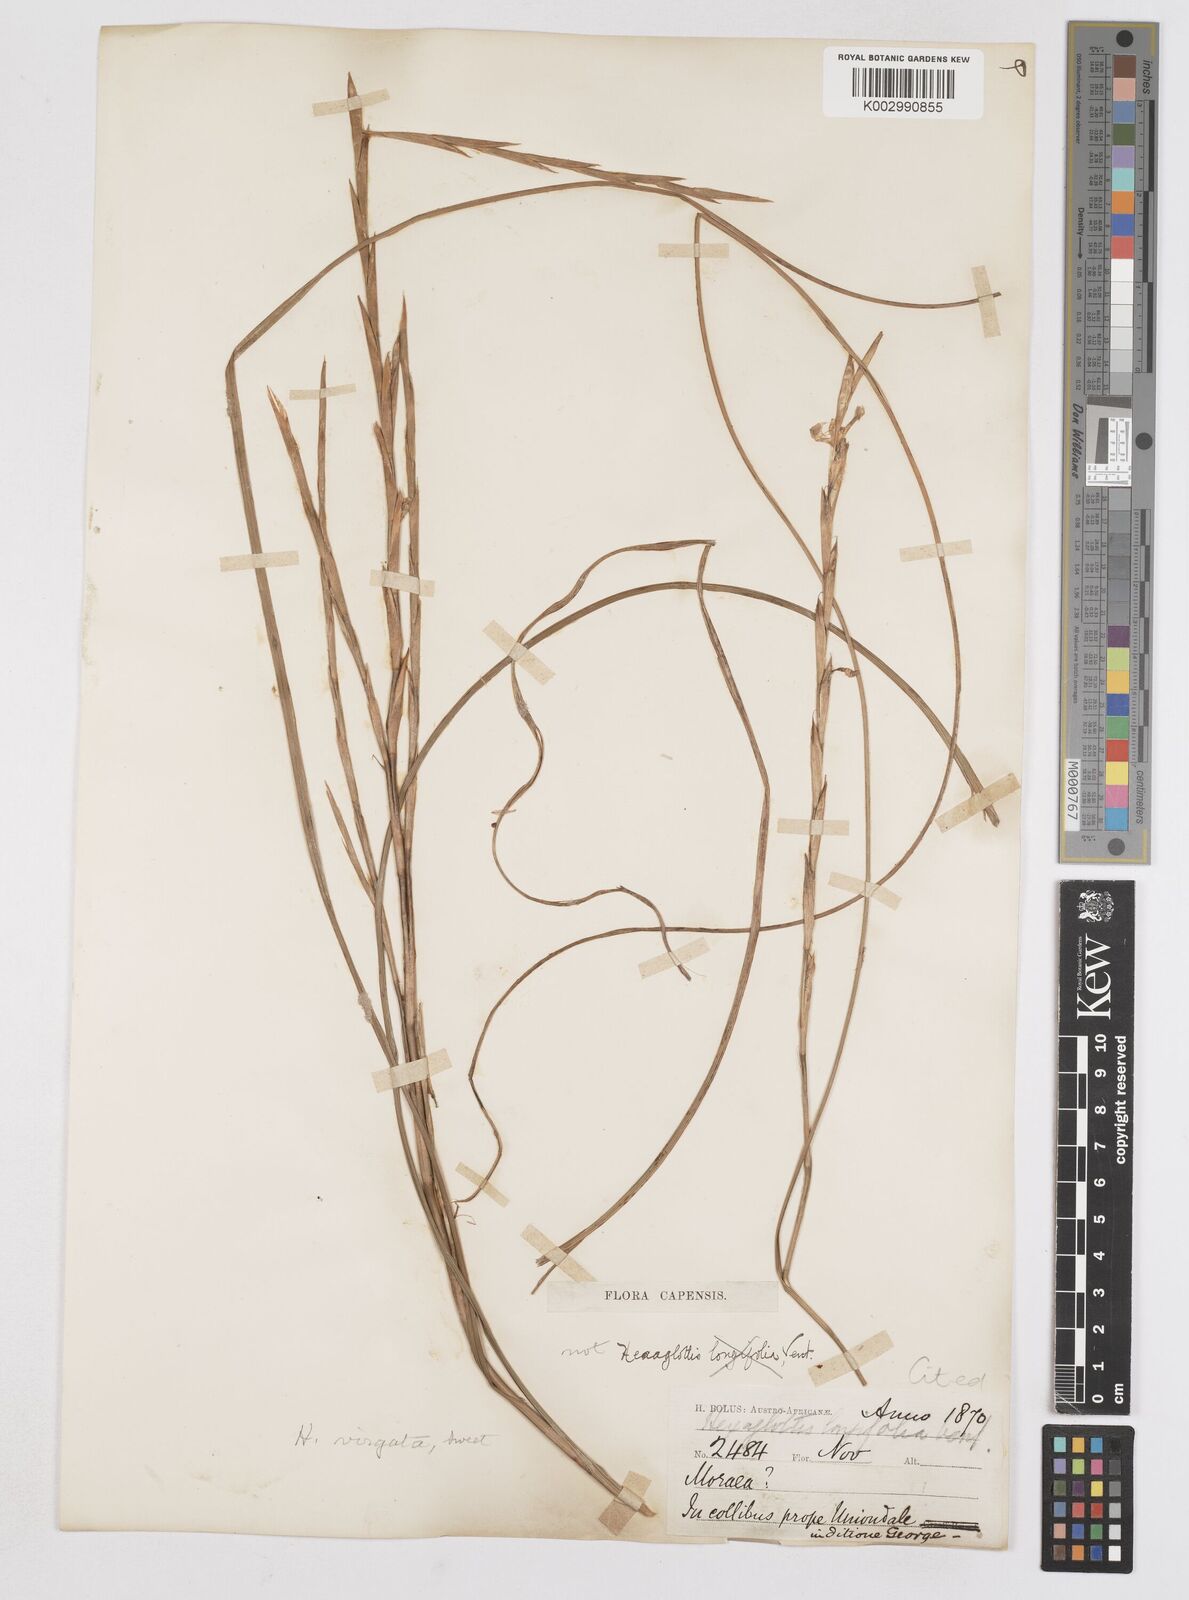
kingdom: Plantae
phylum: Tracheophyta
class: Liliopsida
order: Asparagales
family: Iridaceae
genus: Moraea
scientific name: Moraea virgata
